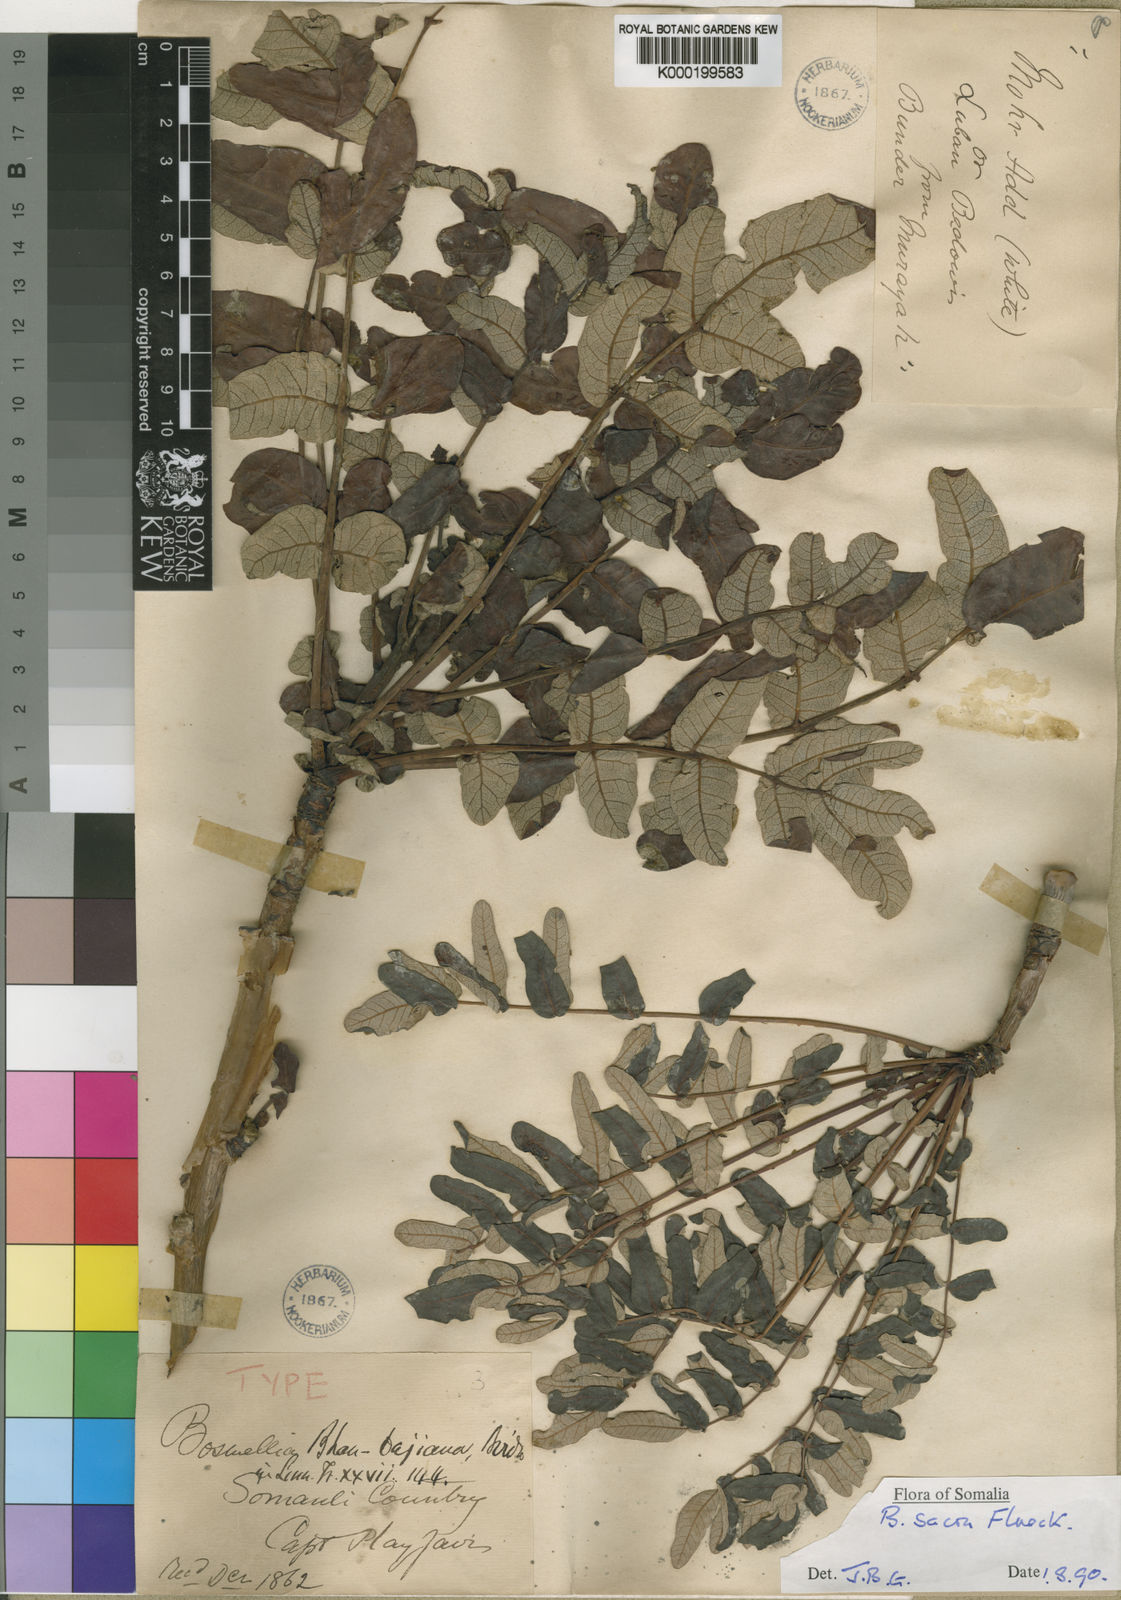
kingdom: Plantae
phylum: Tracheophyta
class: Magnoliopsida
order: Sapindales
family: Burseraceae
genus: Boswellia
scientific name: Boswellia sacra
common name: Olibanum-tree
